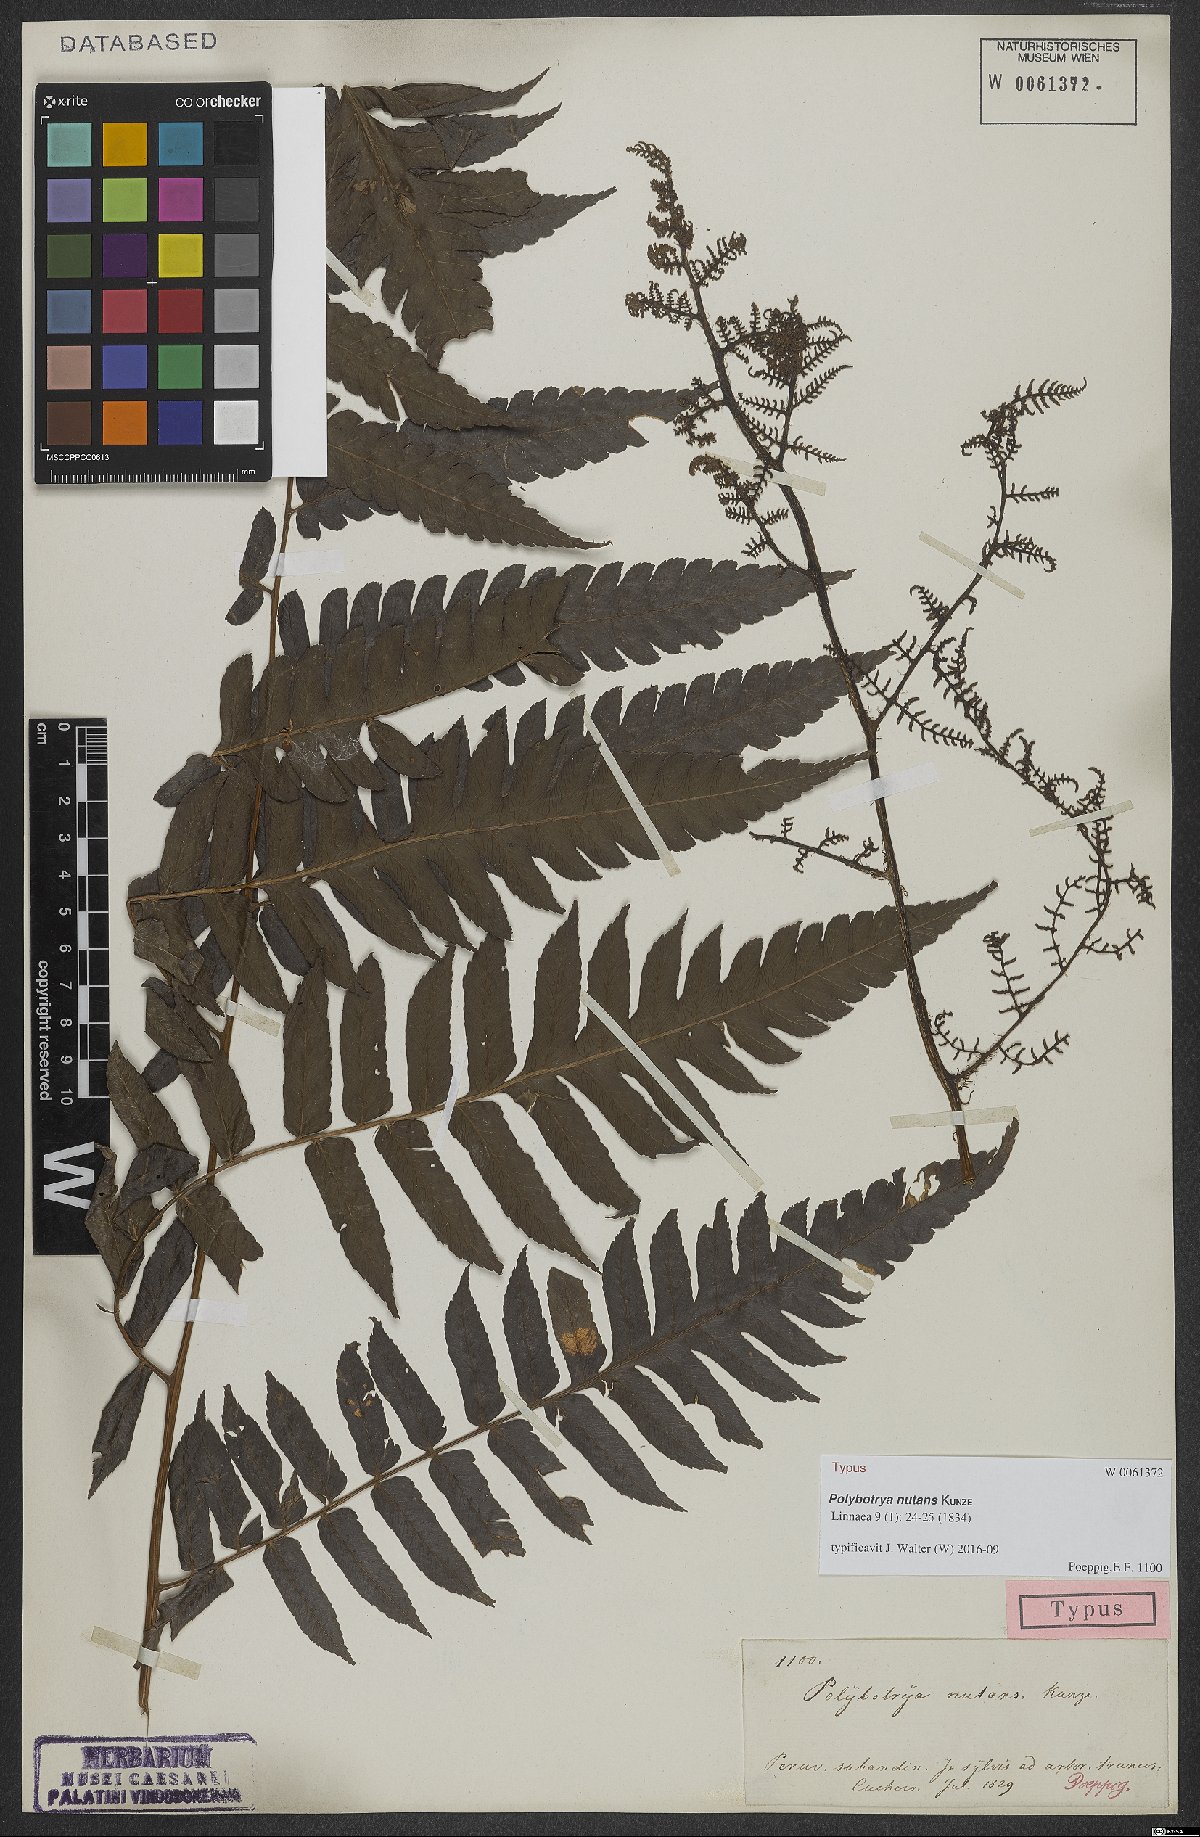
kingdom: Plantae
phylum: Tracheophyta
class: Polypodiopsida
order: Polypodiales
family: Dryopteridaceae
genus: Polybotrya
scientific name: Polybotrya nutans
